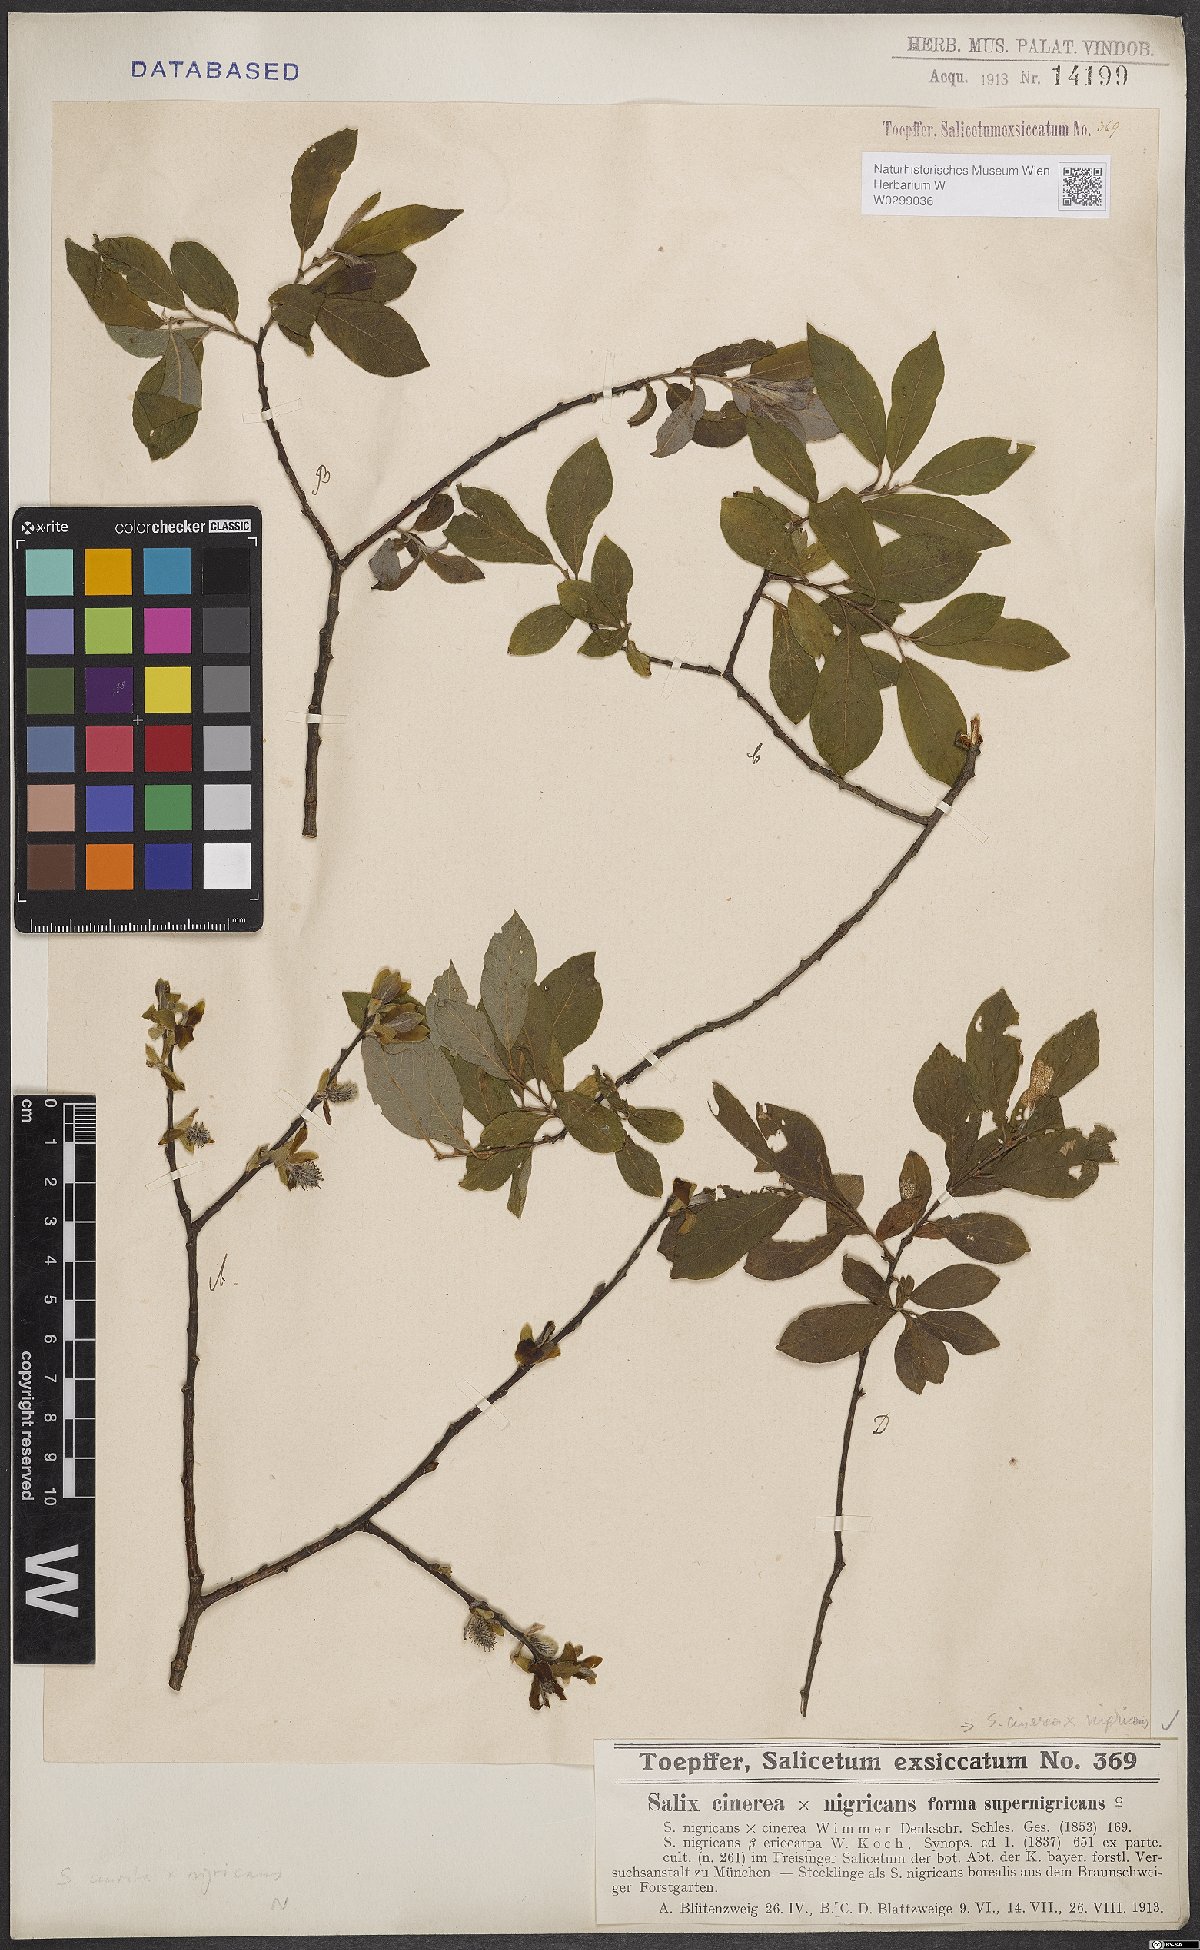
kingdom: Plantae
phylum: Tracheophyta
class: Magnoliopsida
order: Malpighiales
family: Salicaceae
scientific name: Salicaceae
